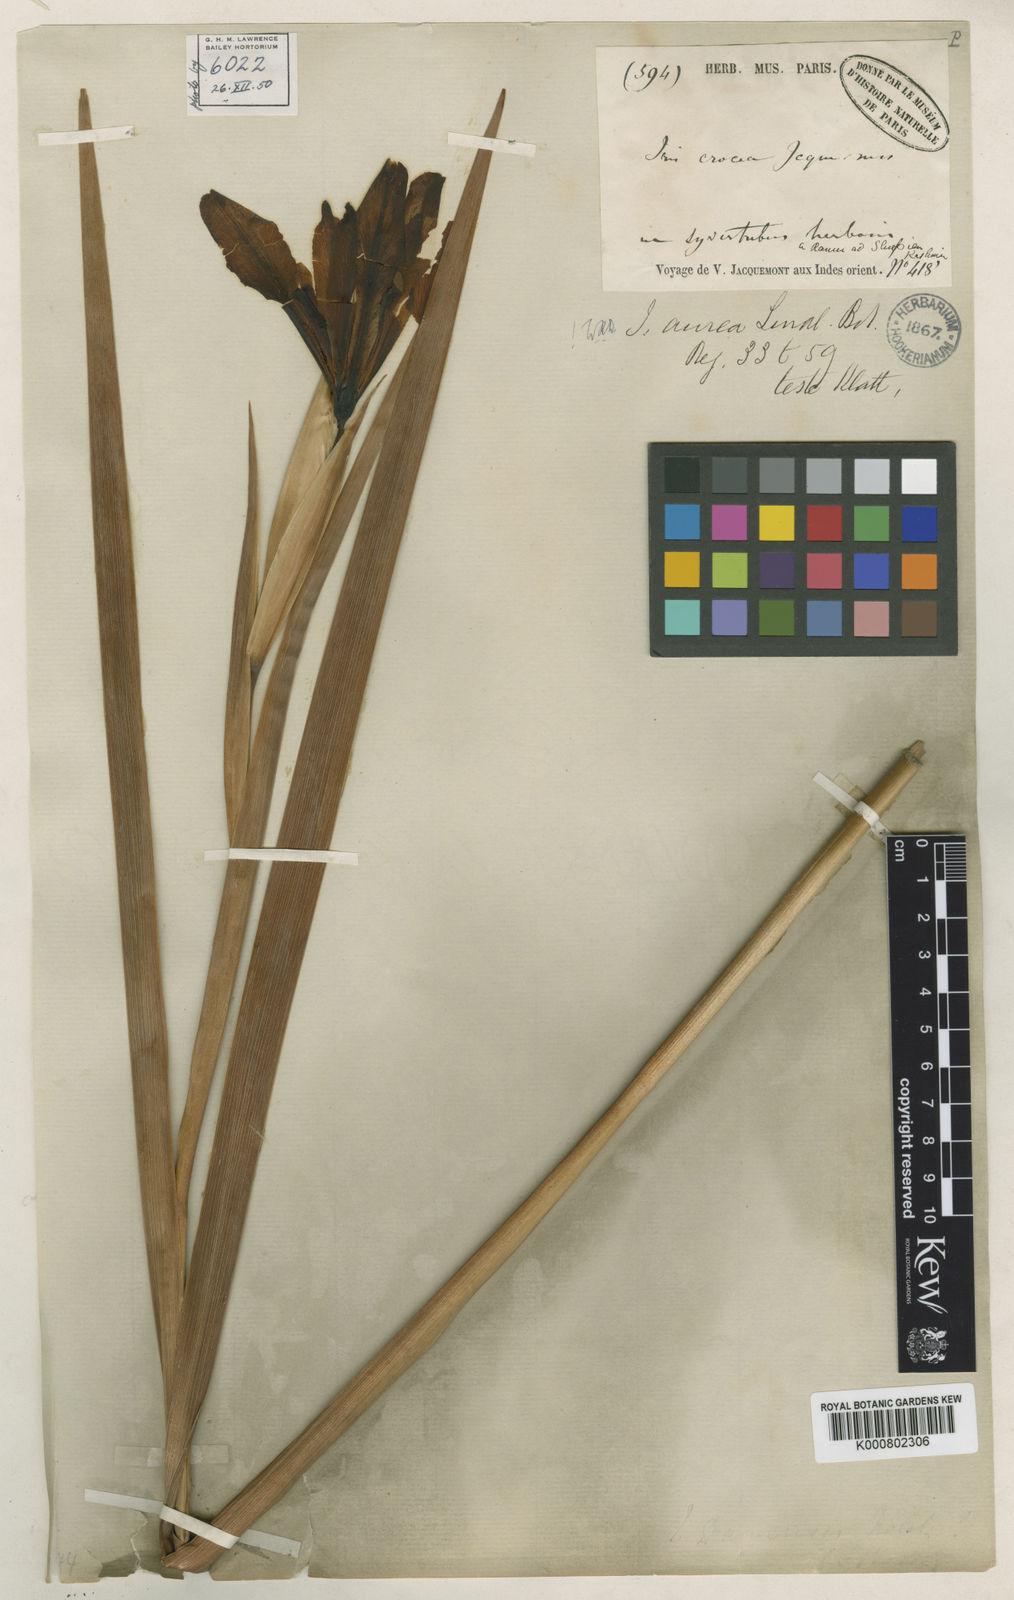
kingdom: Plantae
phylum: Tracheophyta
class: Liliopsida
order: Asparagales
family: Iridaceae
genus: Iris
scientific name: Iris halophila
